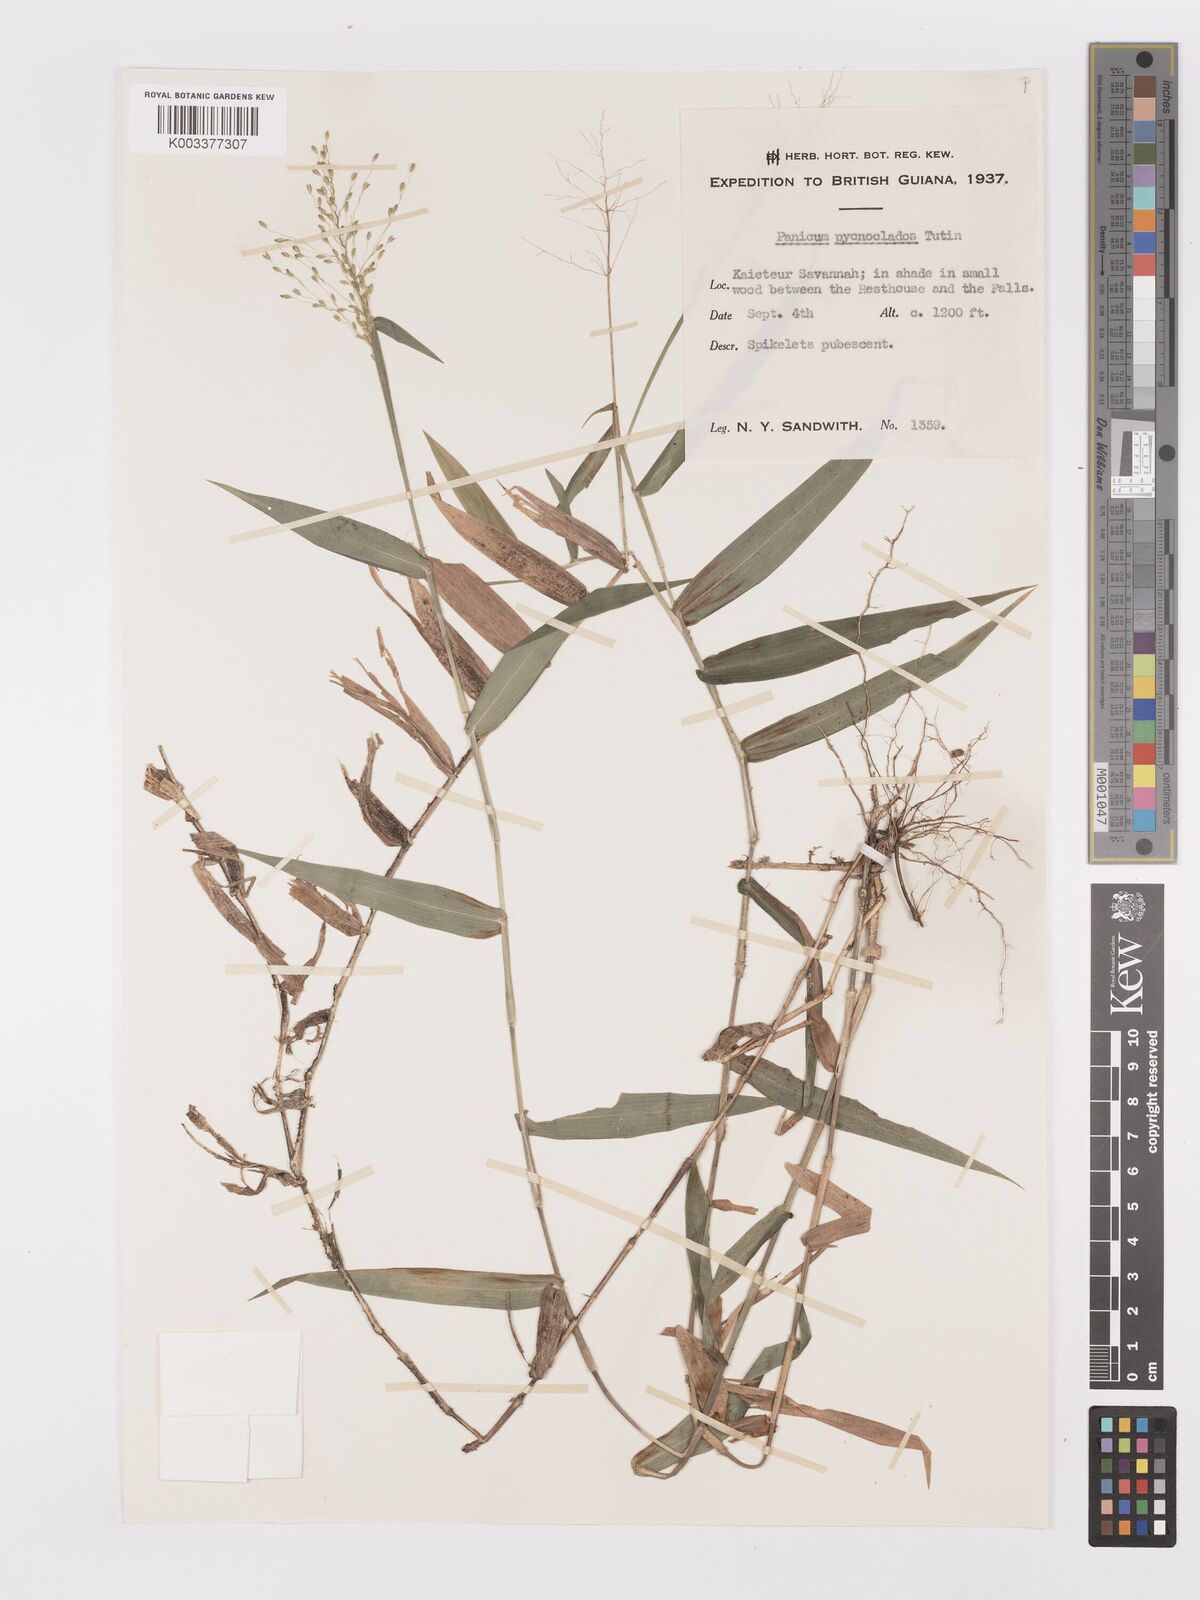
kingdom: Plantae
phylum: Tracheophyta
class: Liliopsida
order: Poales
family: Poaceae
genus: Dichanthelium
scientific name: Dichanthelium pycnoclados
